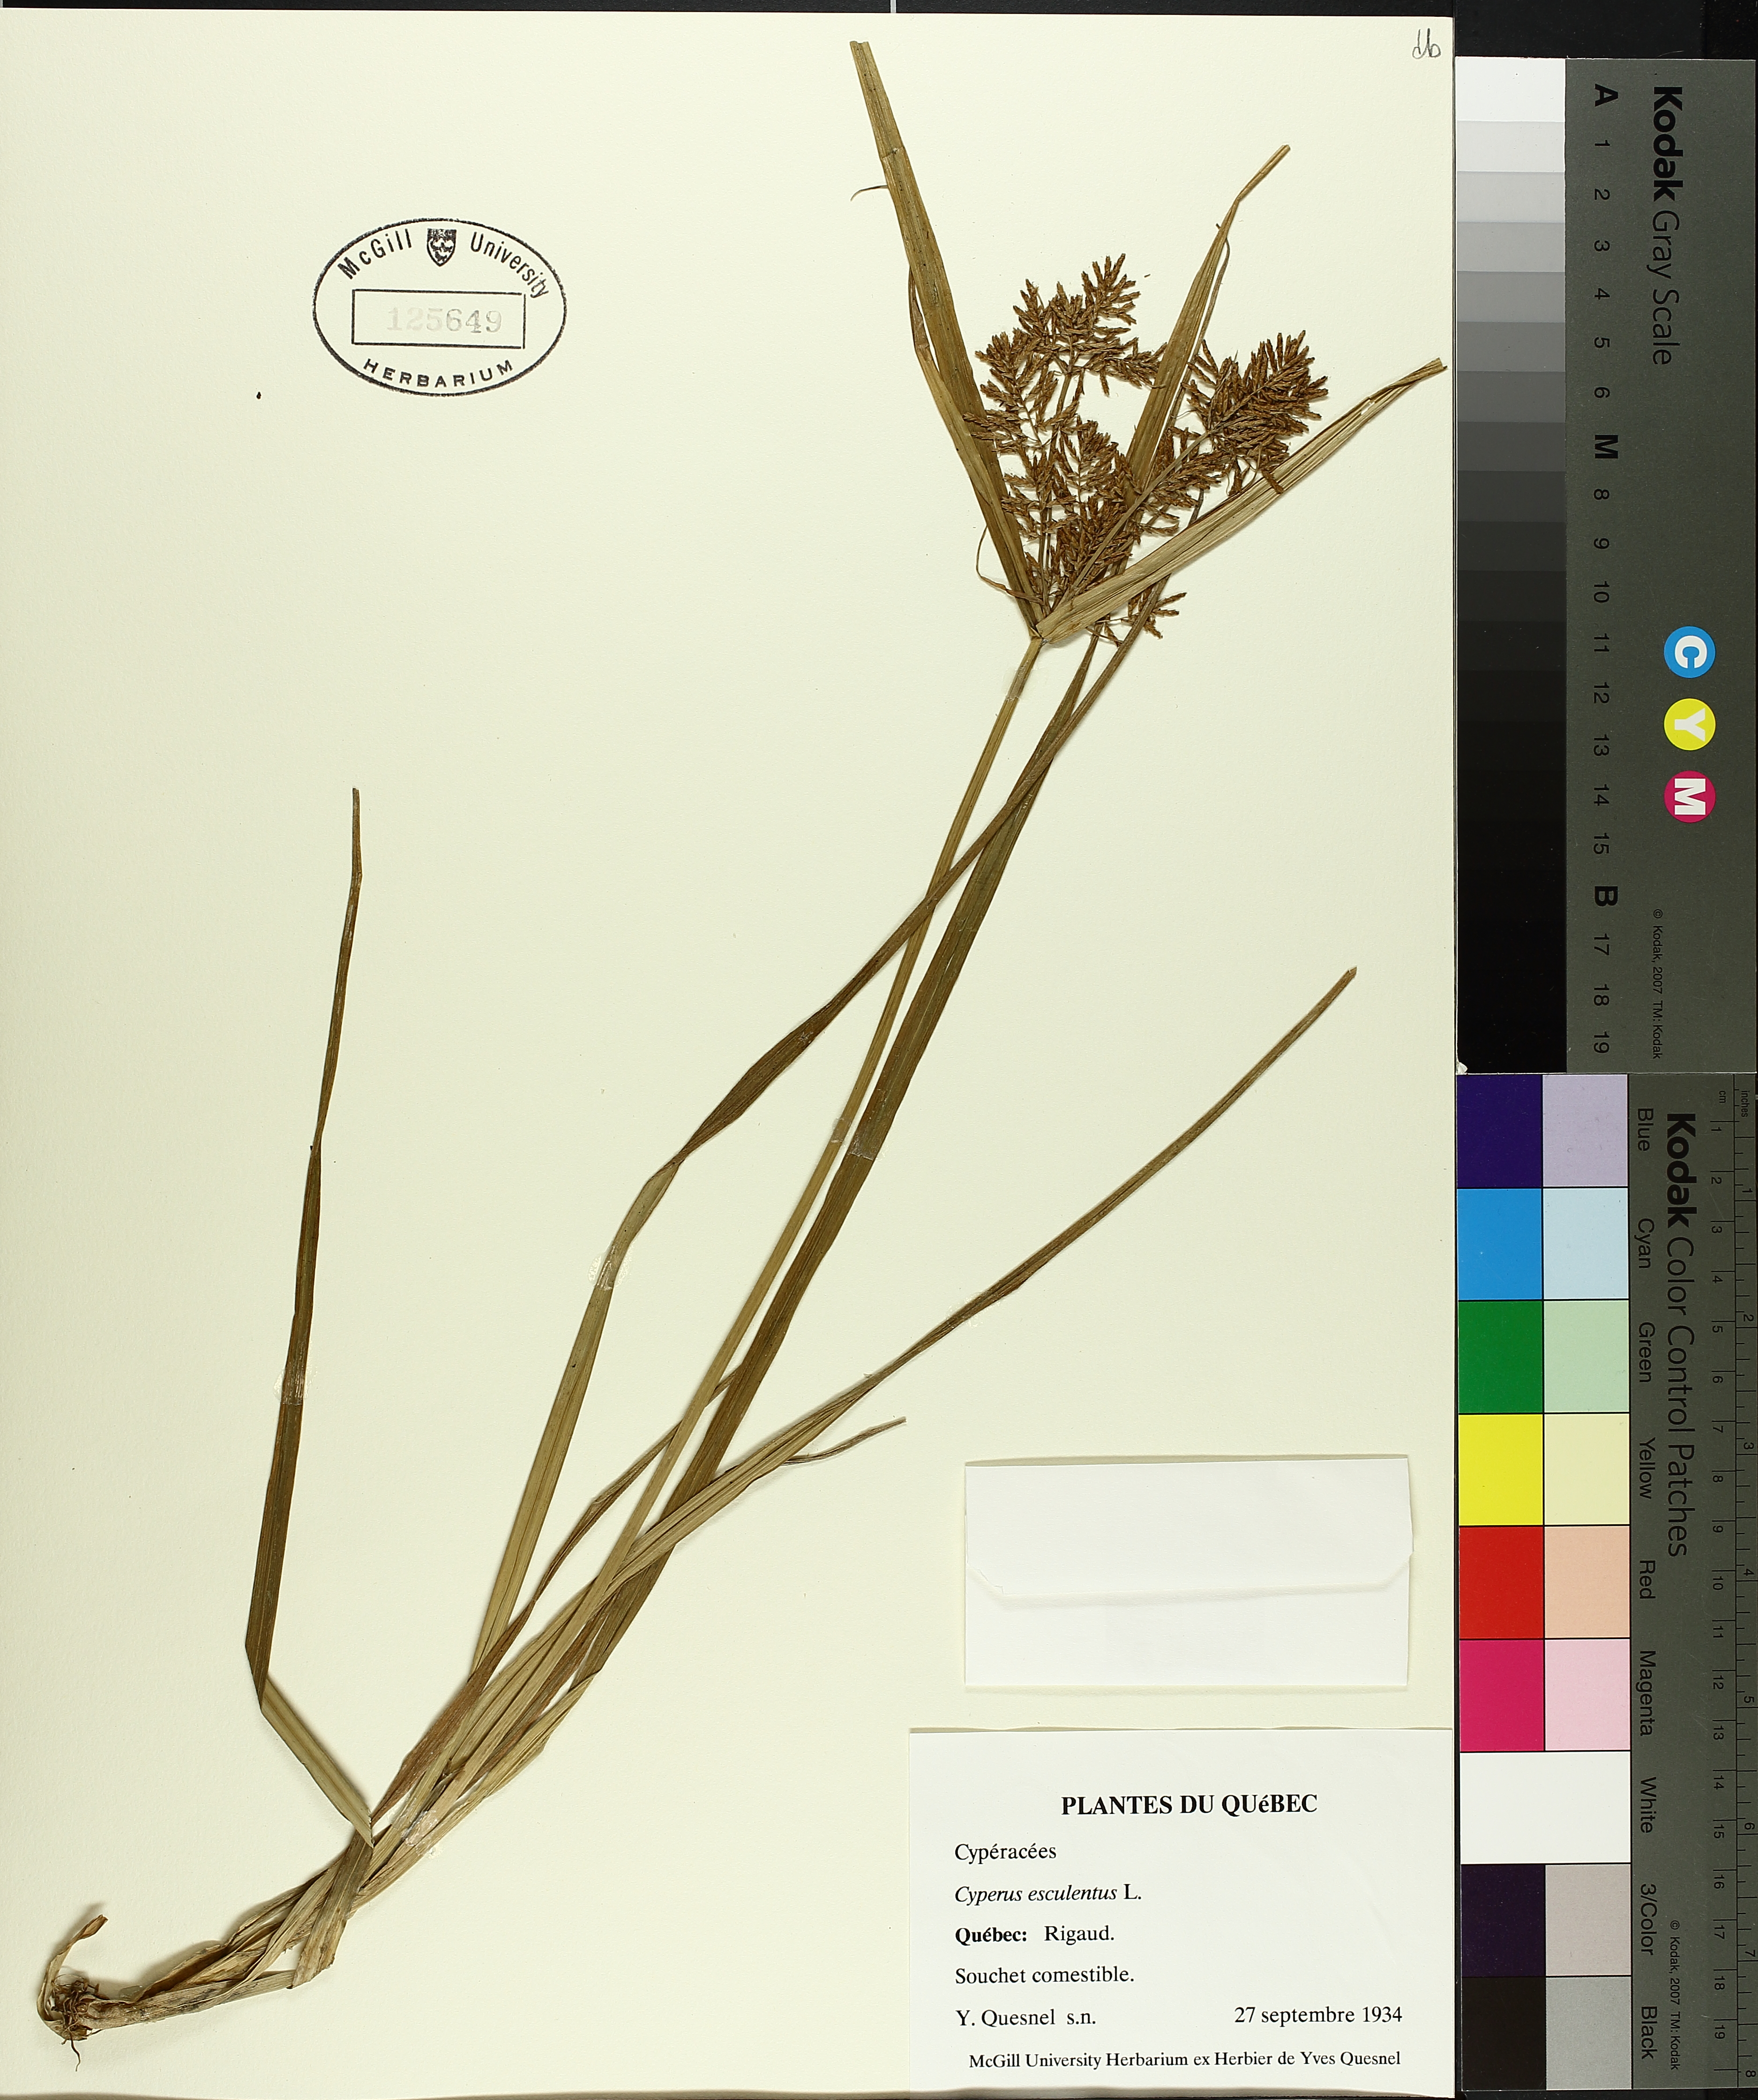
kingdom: Plantae
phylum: Tracheophyta
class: Liliopsida
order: Poales
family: Cyperaceae
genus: Cyperus
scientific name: Cyperus esculentus
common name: Yellow nutsedge
